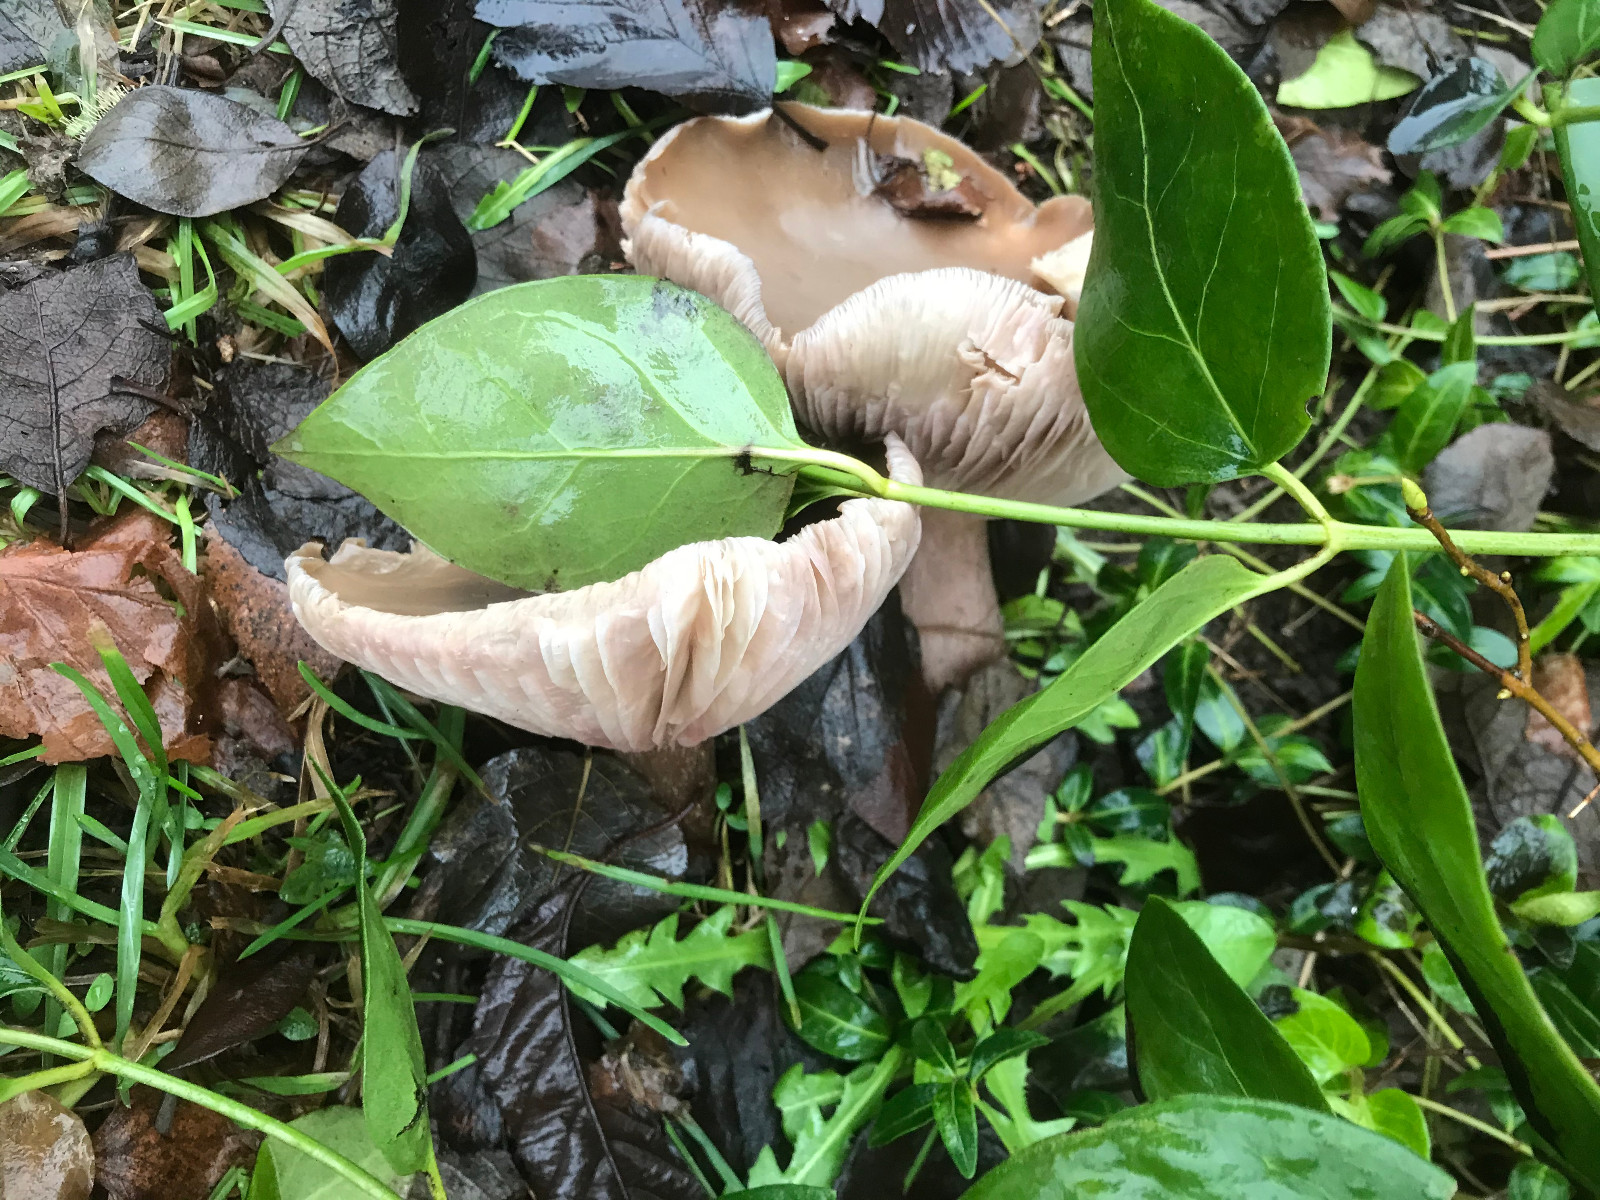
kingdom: Fungi
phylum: Basidiomycota
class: Agaricomycetes
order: Agaricales
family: Tricholomataceae
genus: Lepista
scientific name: Lepista personata
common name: bleg hekseringshat
